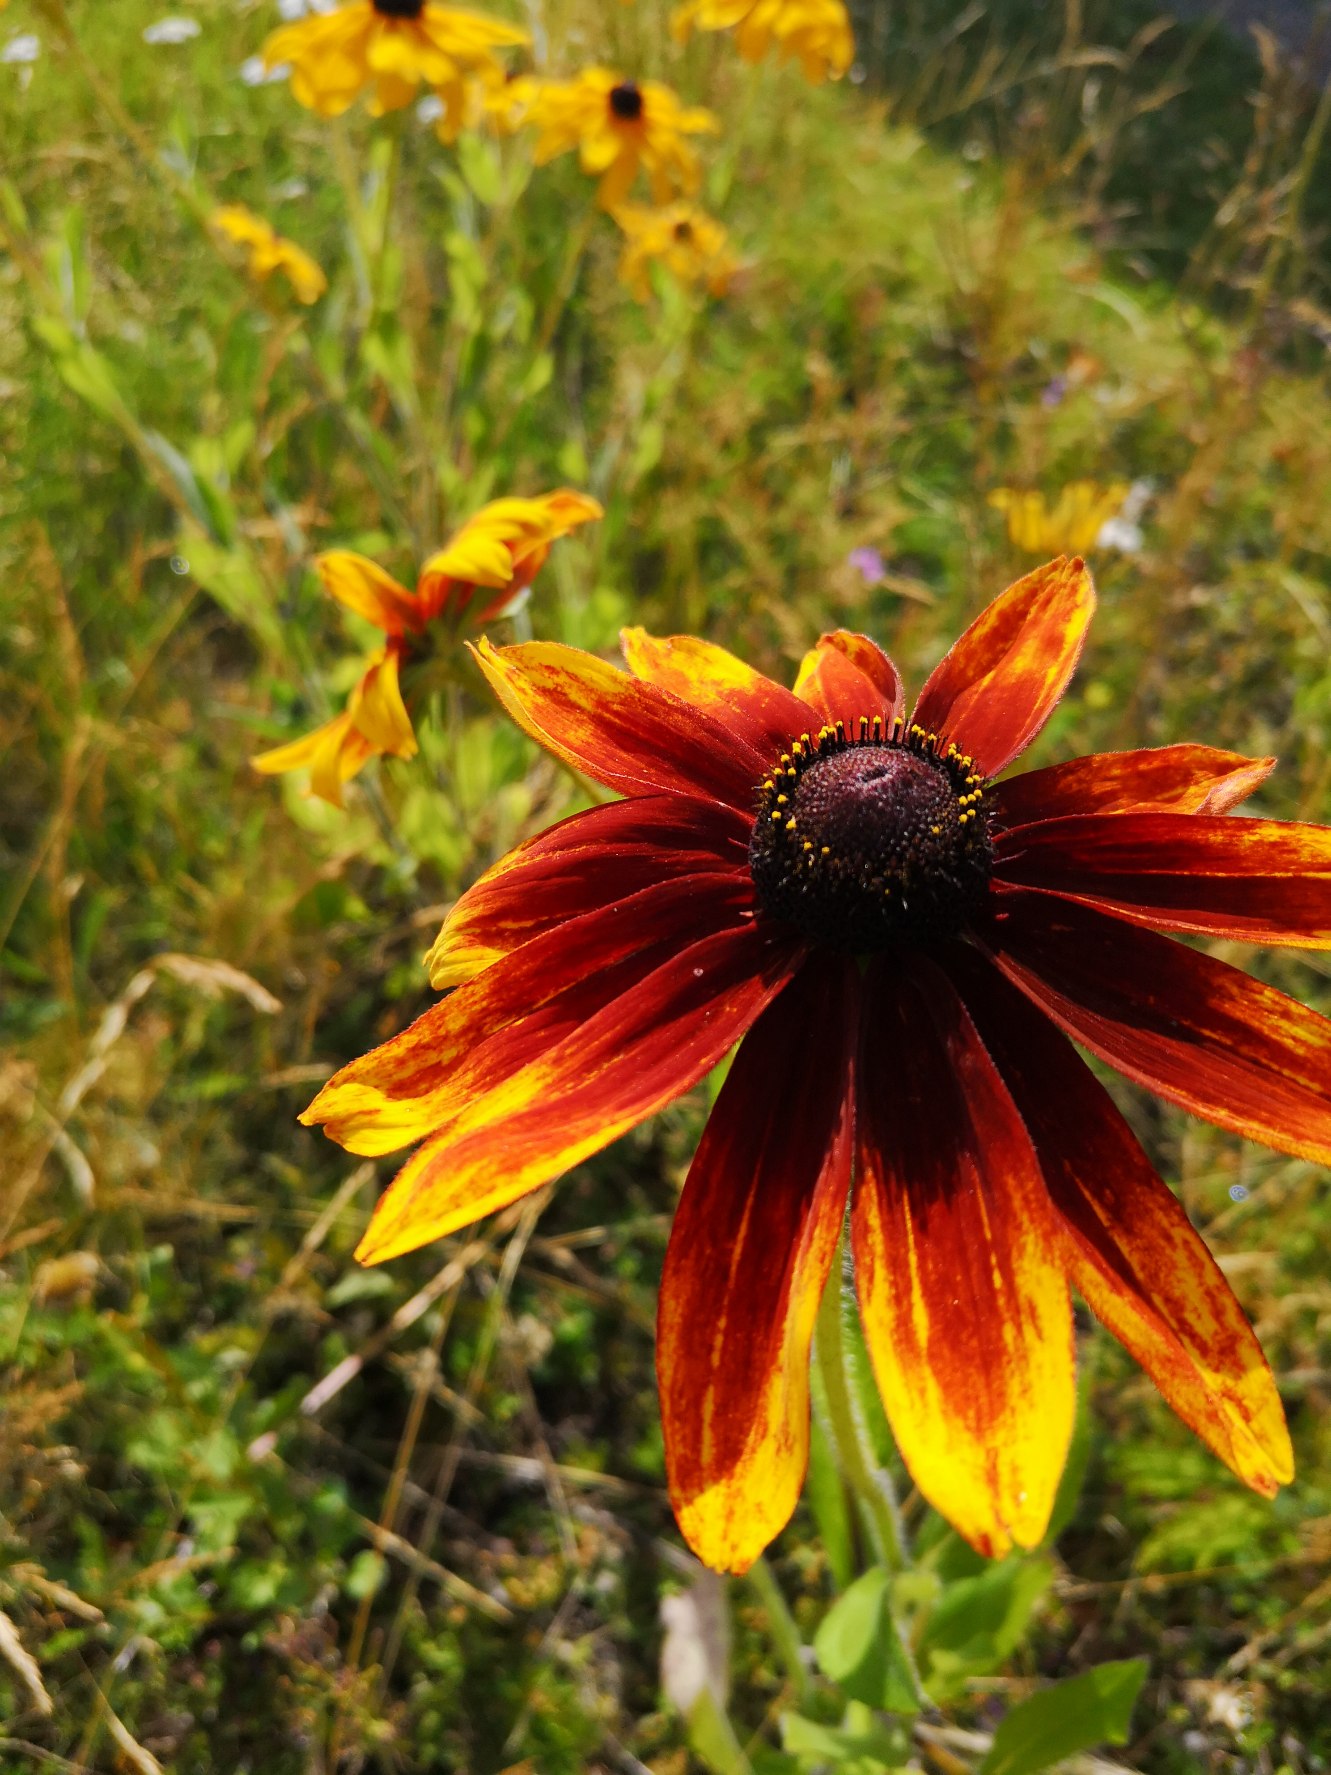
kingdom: Plantae
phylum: Tracheophyta
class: Magnoliopsida
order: Asterales
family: Asteraceae
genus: Rudbeckia
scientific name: Rudbeckia hirta
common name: Håret solhat
